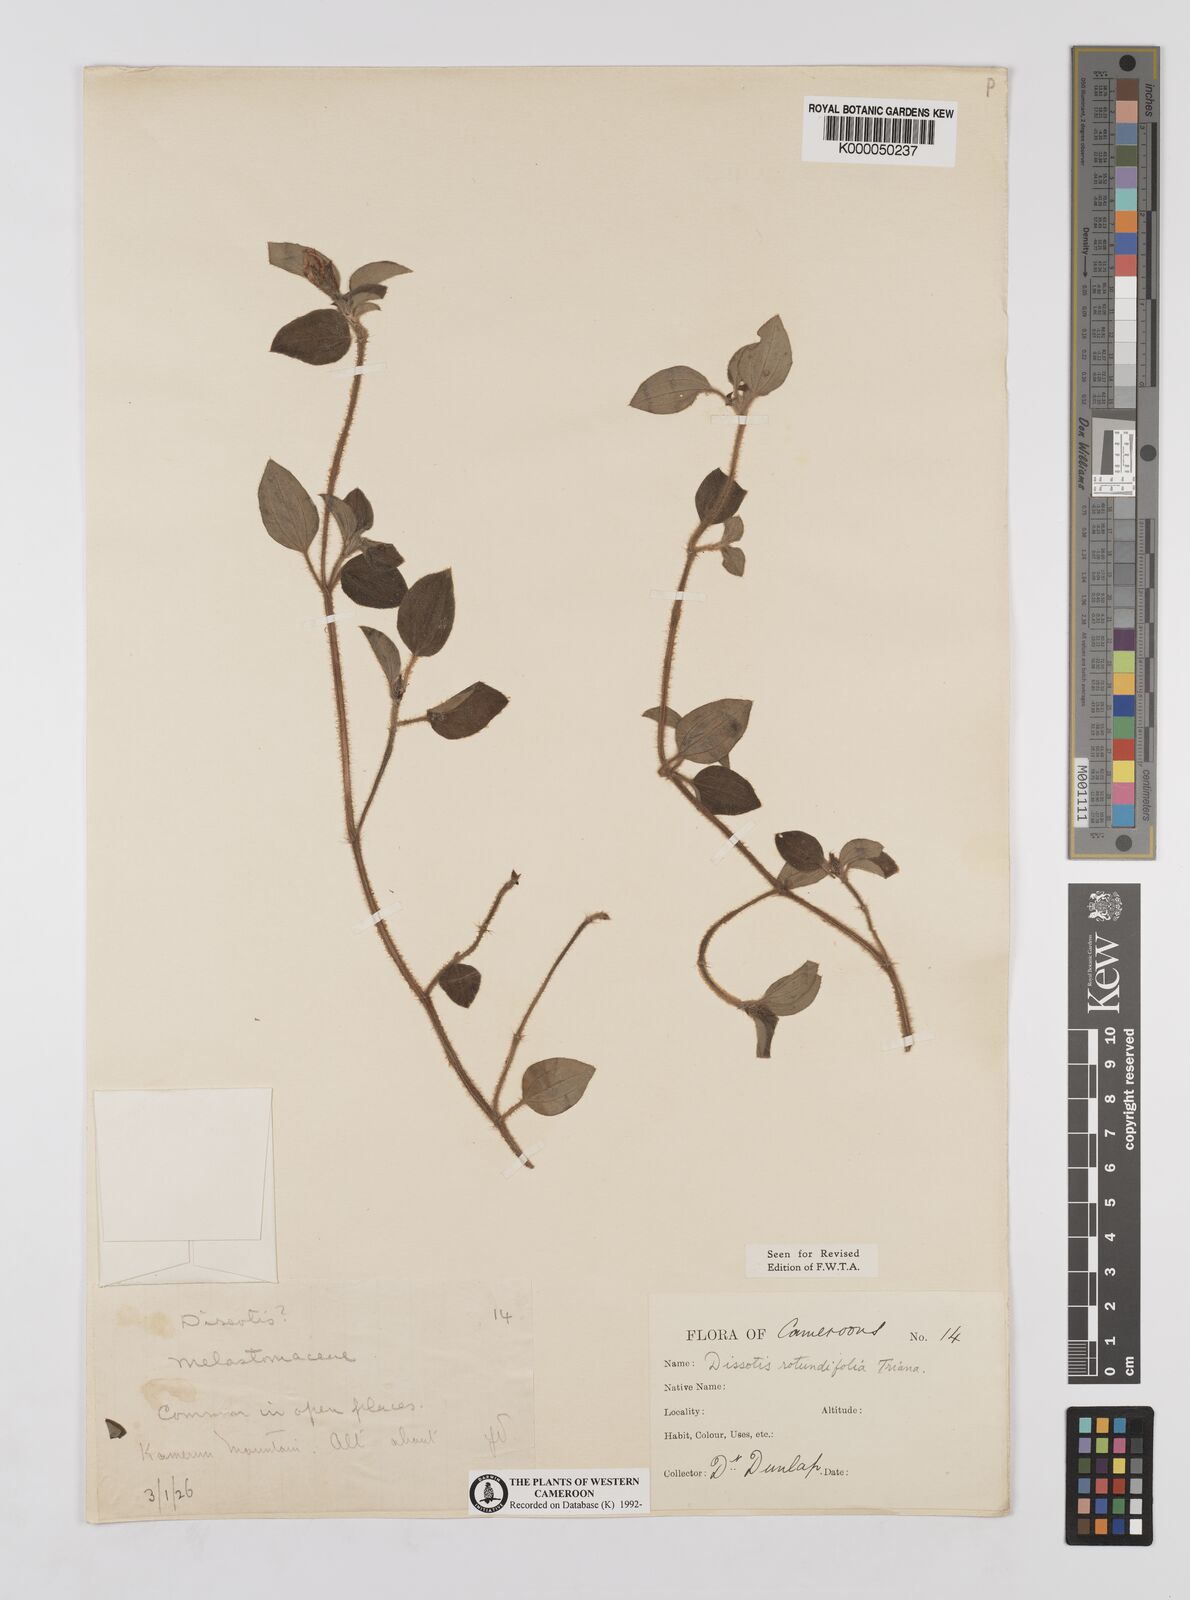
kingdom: Plantae
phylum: Tracheophyta
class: Magnoliopsida
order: Myrtales
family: Melastomataceae
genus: Heterotis
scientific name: Heterotis rotundifolia
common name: Pinklady
